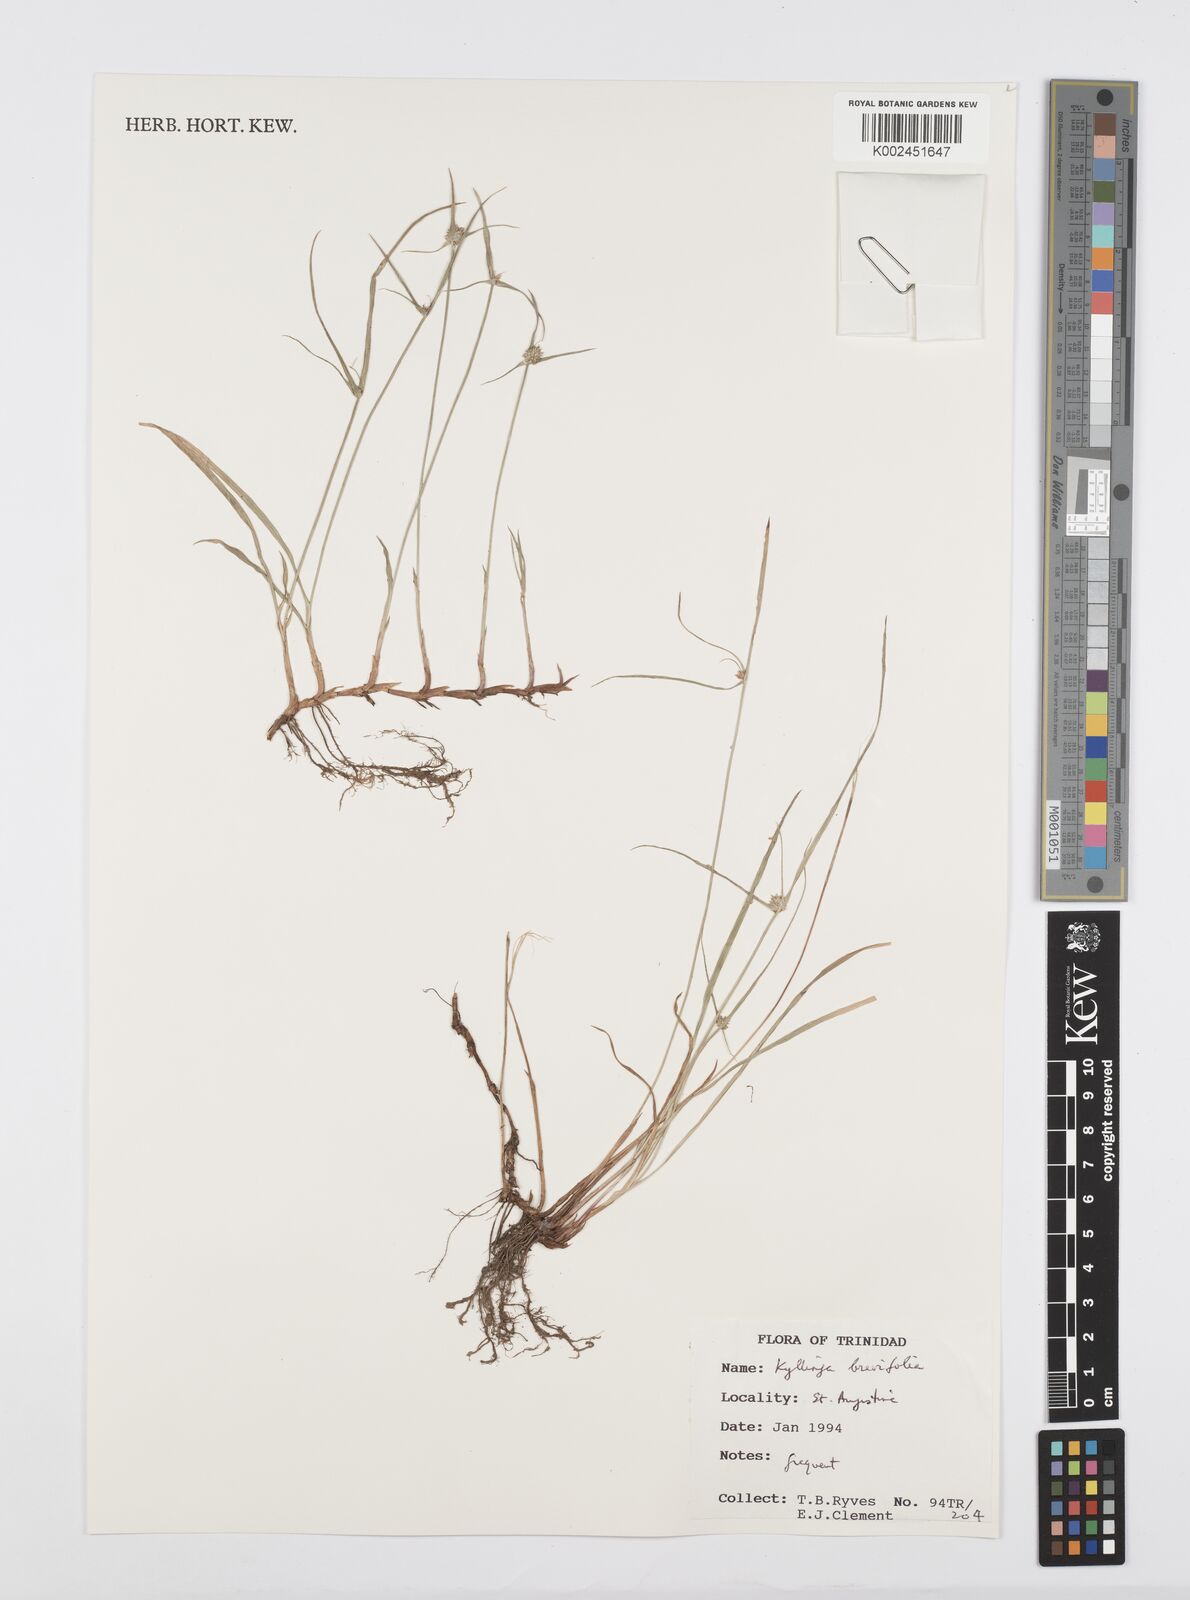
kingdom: Plantae
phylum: Tracheophyta
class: Liliopsida
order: Poales
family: Cyperaceae
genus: Cyperus
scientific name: Cyperus brevifolius
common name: Globe kyllinga
